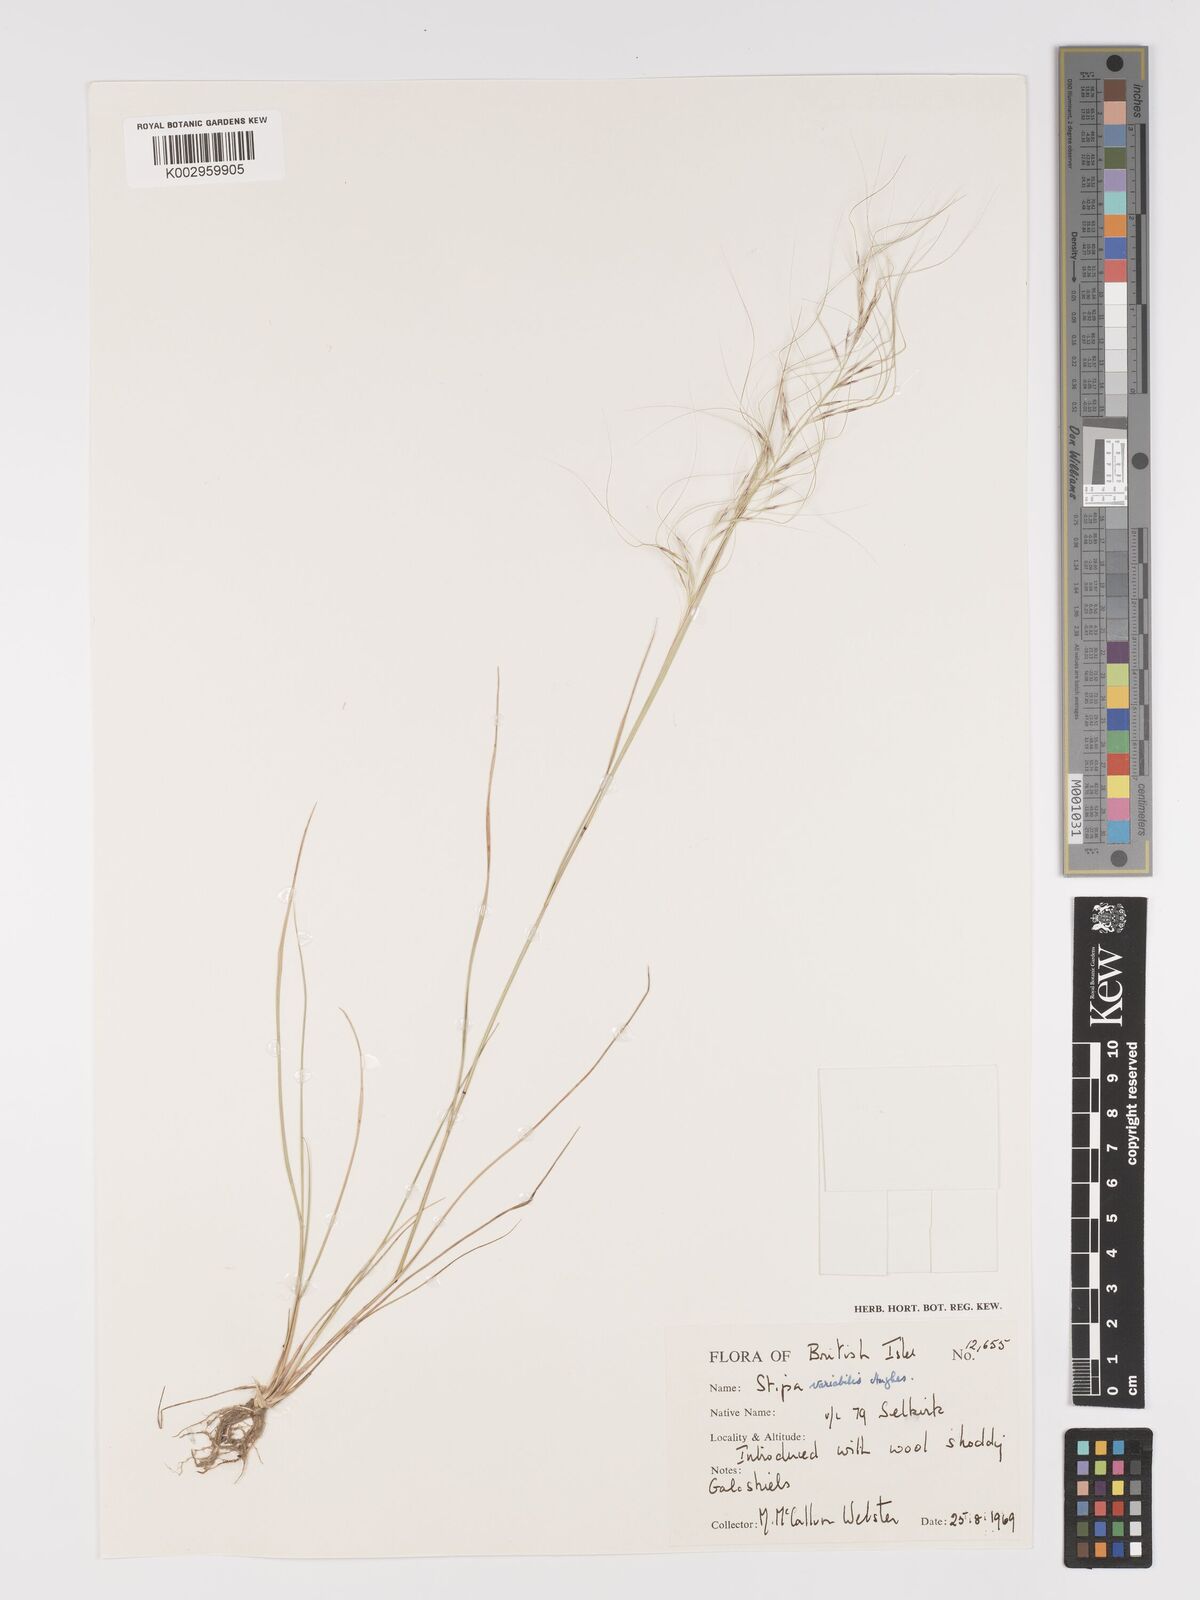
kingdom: Plantae
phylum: Tracheophyta
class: Liliopsida
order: Poales
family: Poaceae
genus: Austrostipa
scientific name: Austrostipa variabilis
